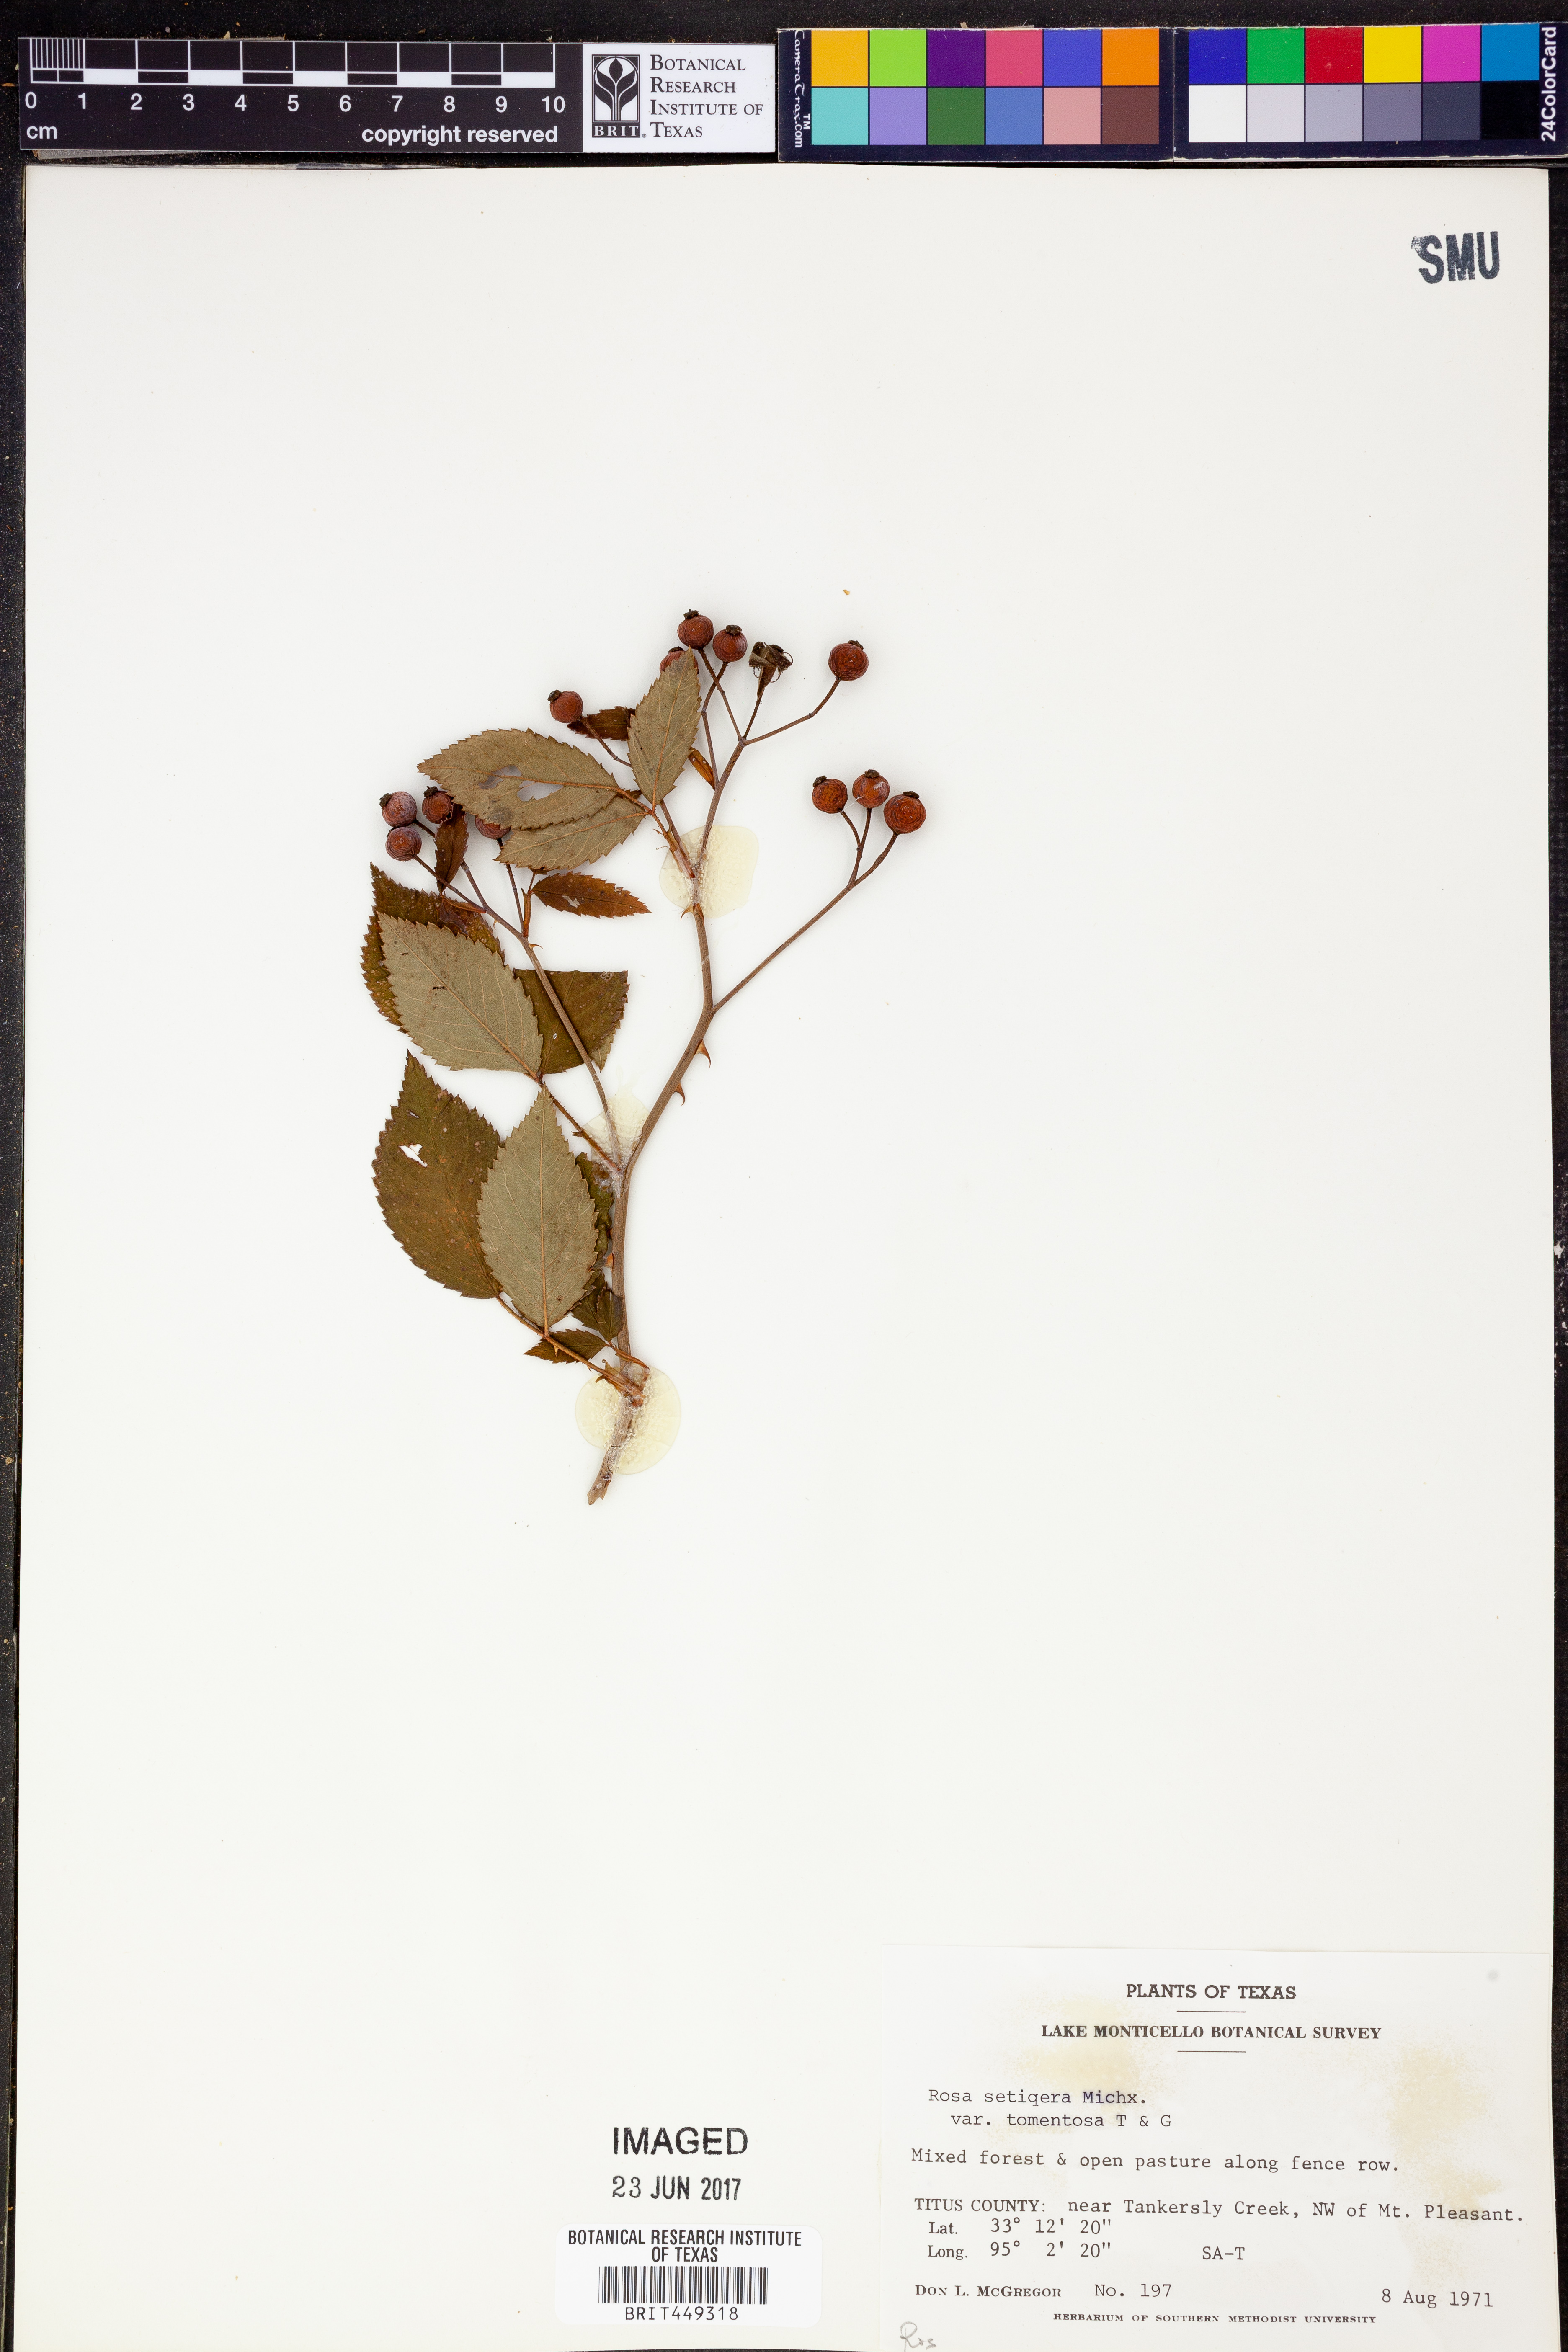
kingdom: Plantae
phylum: Tracheophyta
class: Magnoliopsida
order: Rosales
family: Rosaceae
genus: Rosa
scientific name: Rosa setigera
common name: Prairie rose
